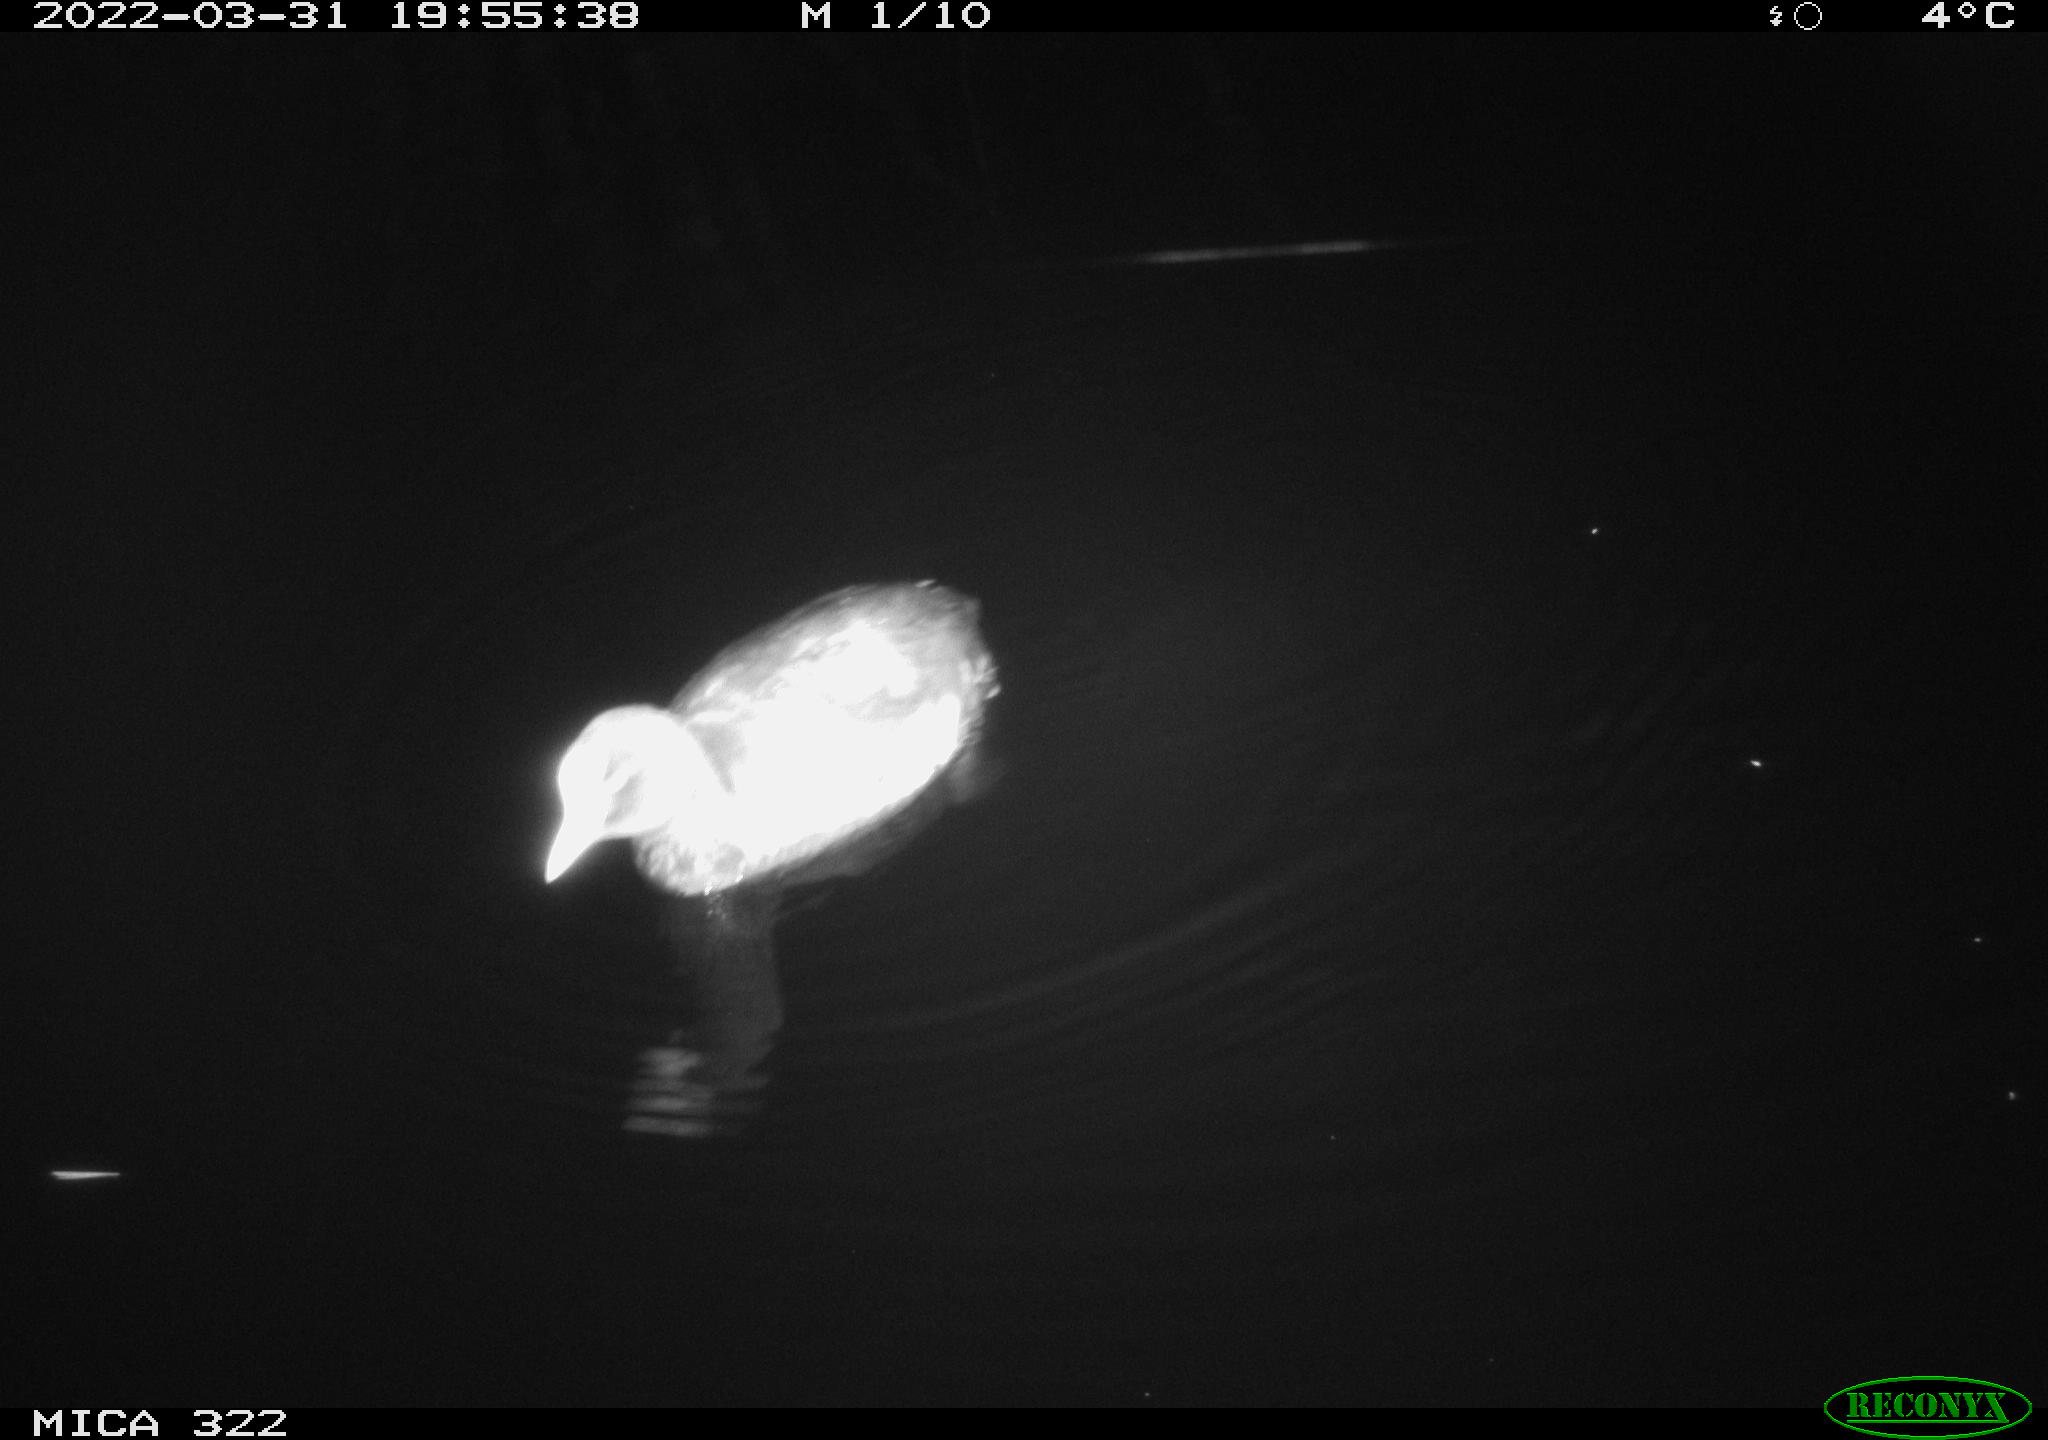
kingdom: Animalia
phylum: Chordata
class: Aves
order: Gruiformes
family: Rallidae
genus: Gallinula
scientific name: Gallinula chloropus
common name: Common moorhen
